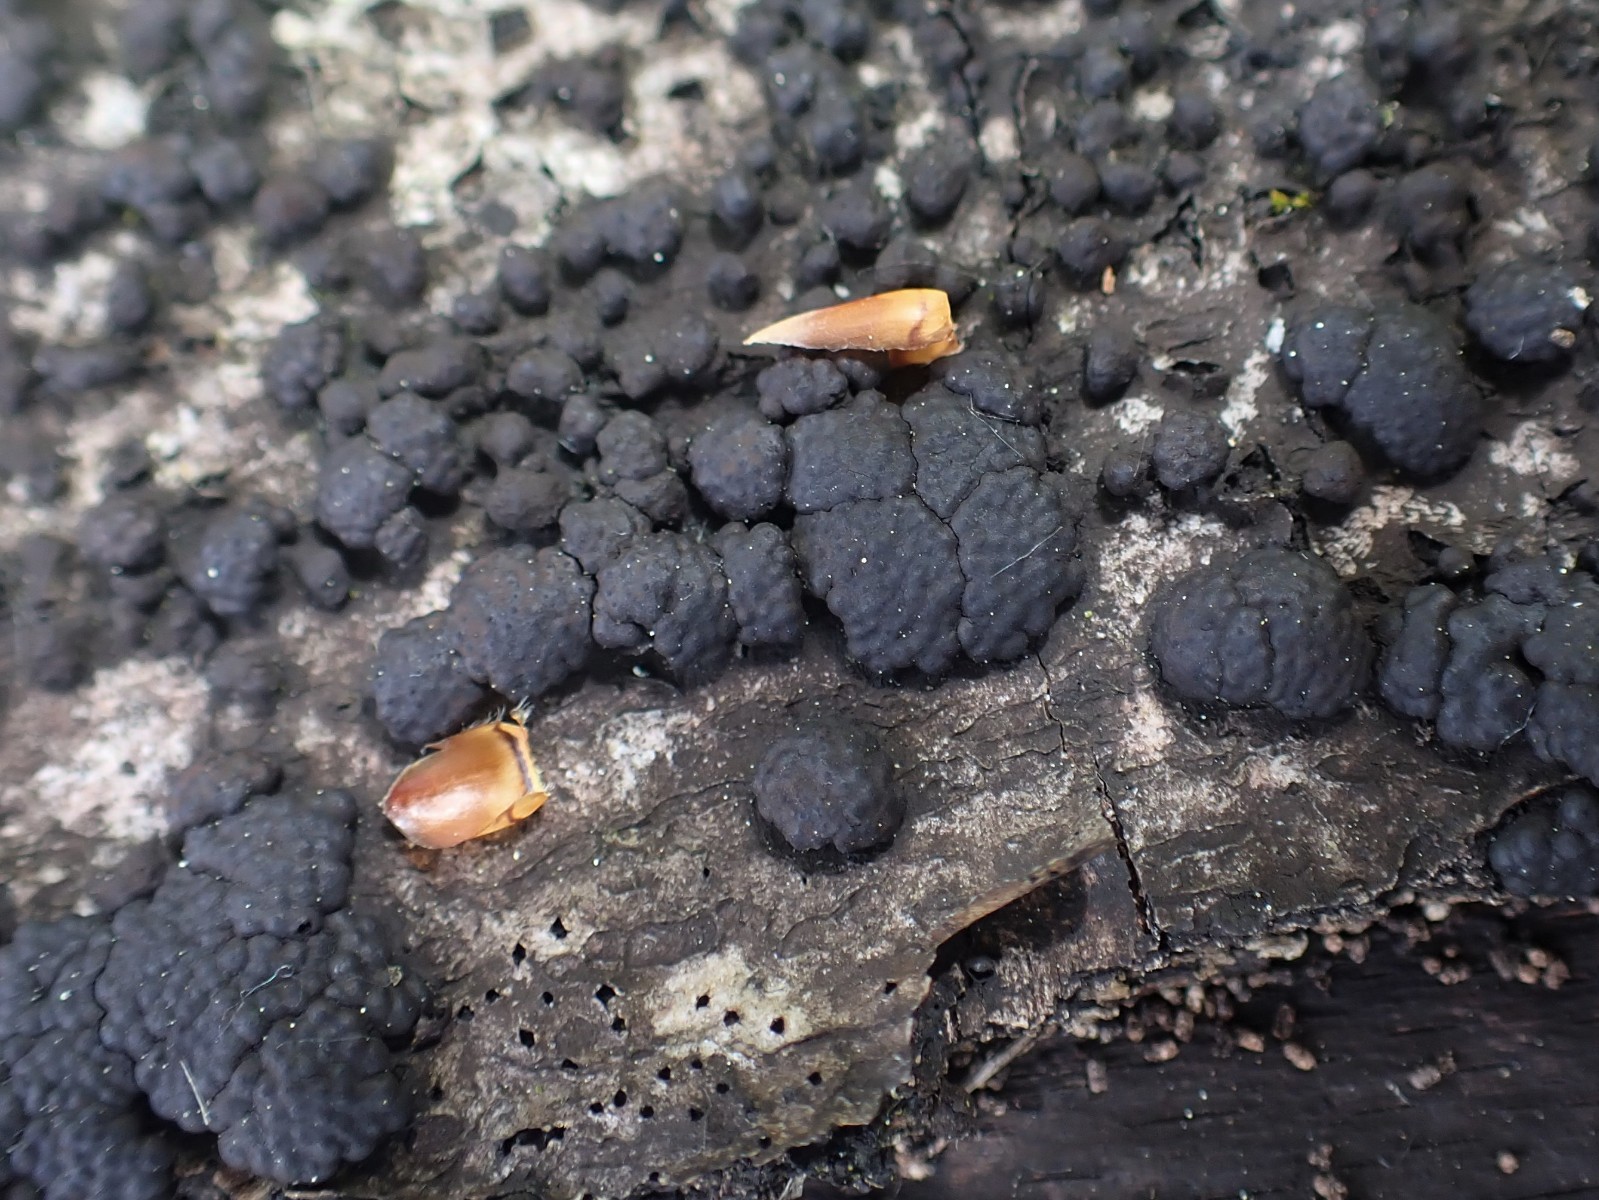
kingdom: Fungi
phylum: Ascomycota
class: Sordariomycetes
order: Xylariales
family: Hypoxylaceae
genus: Jackrogersella
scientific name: Jackrogersella cohaerens
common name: sammenflydende kulbær
